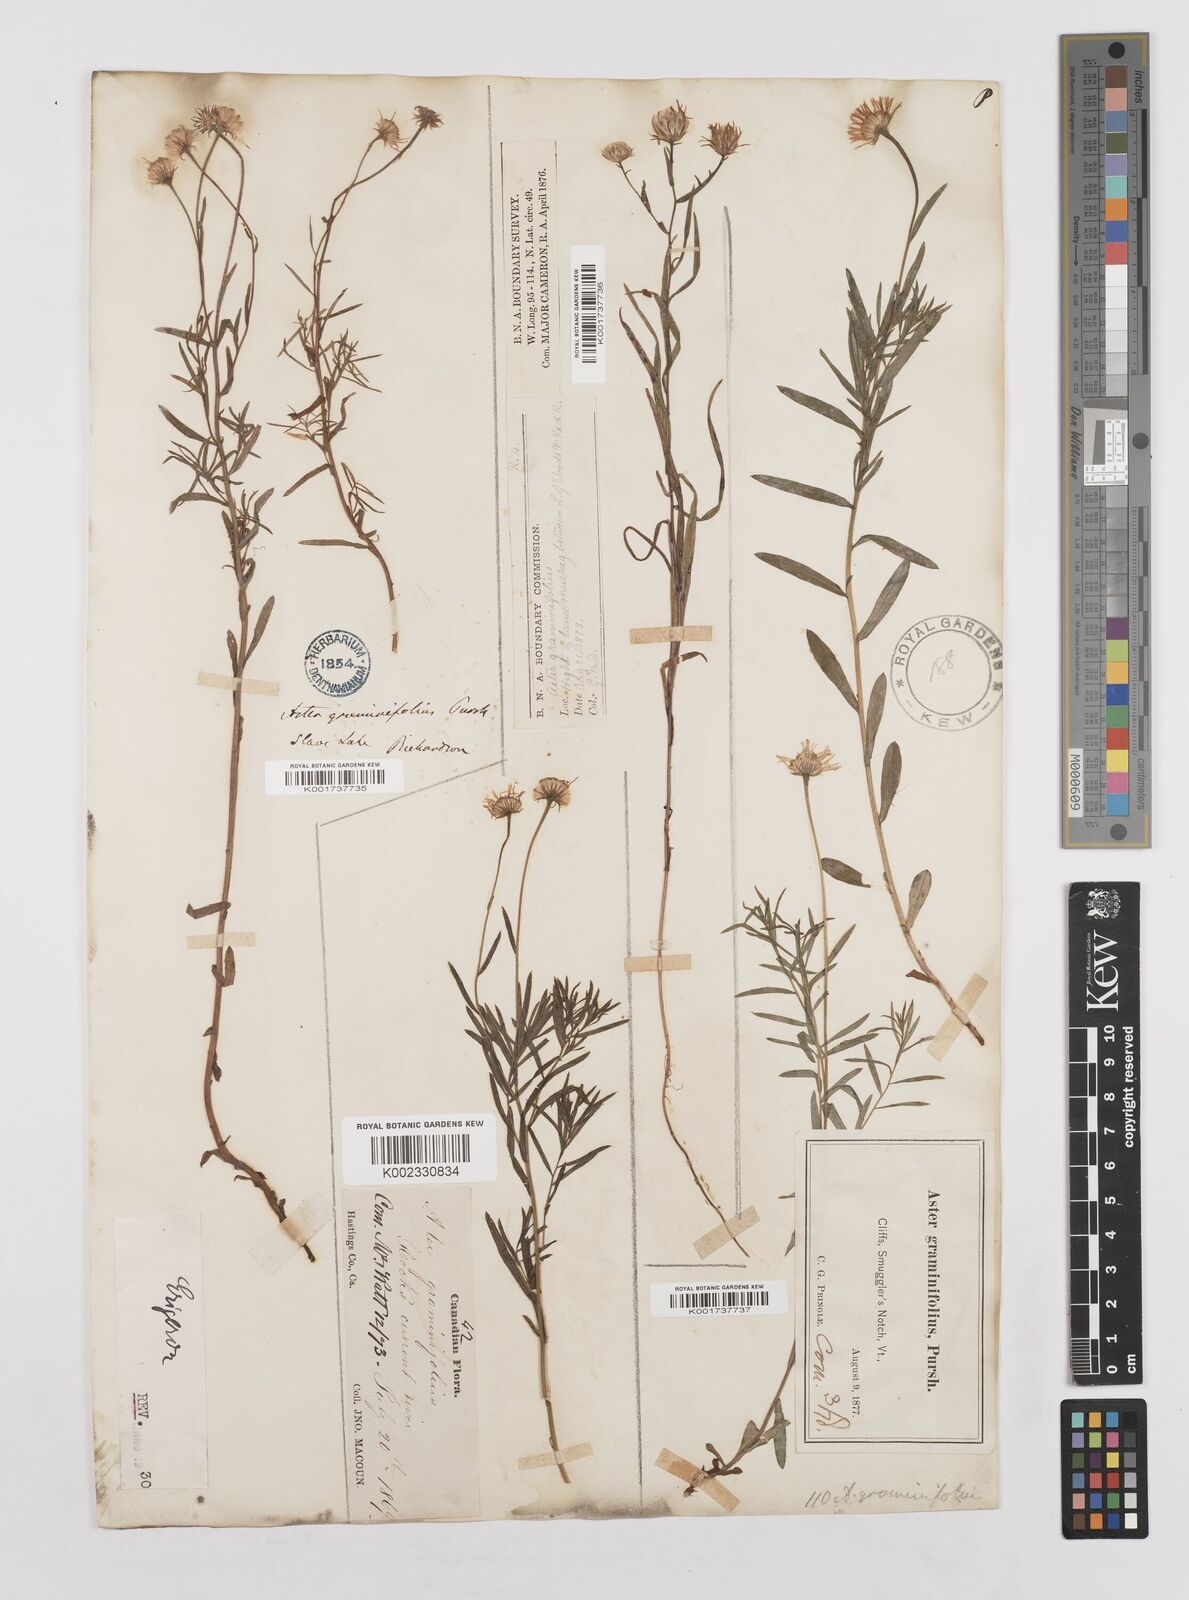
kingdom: Plantae
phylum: Tracheophyta
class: Magnoliopsida
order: Asterales
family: Asteraceae
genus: Erigeron
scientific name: Erigeron
